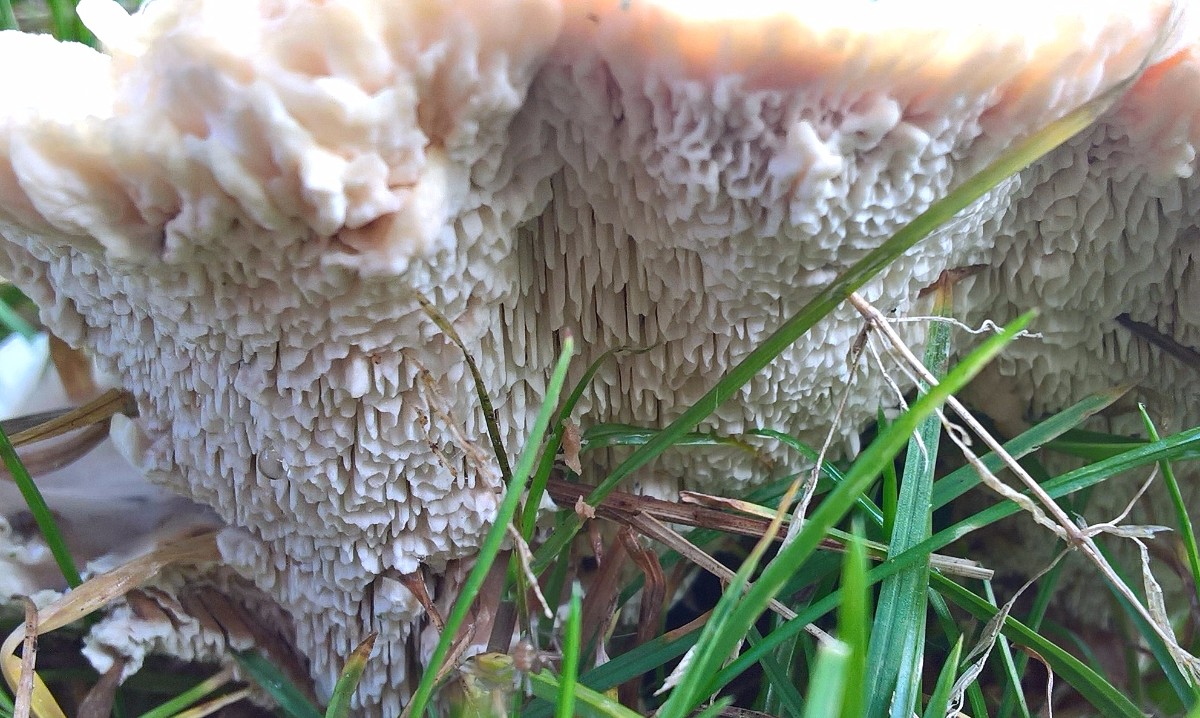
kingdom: Fungi
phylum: Basidiomycota
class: Agaricomycetes
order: Polyporales
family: Podoscyphaceae
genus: Abortiporus
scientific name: Abortiporus biennis
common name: rødmende pjalteporesvamp
